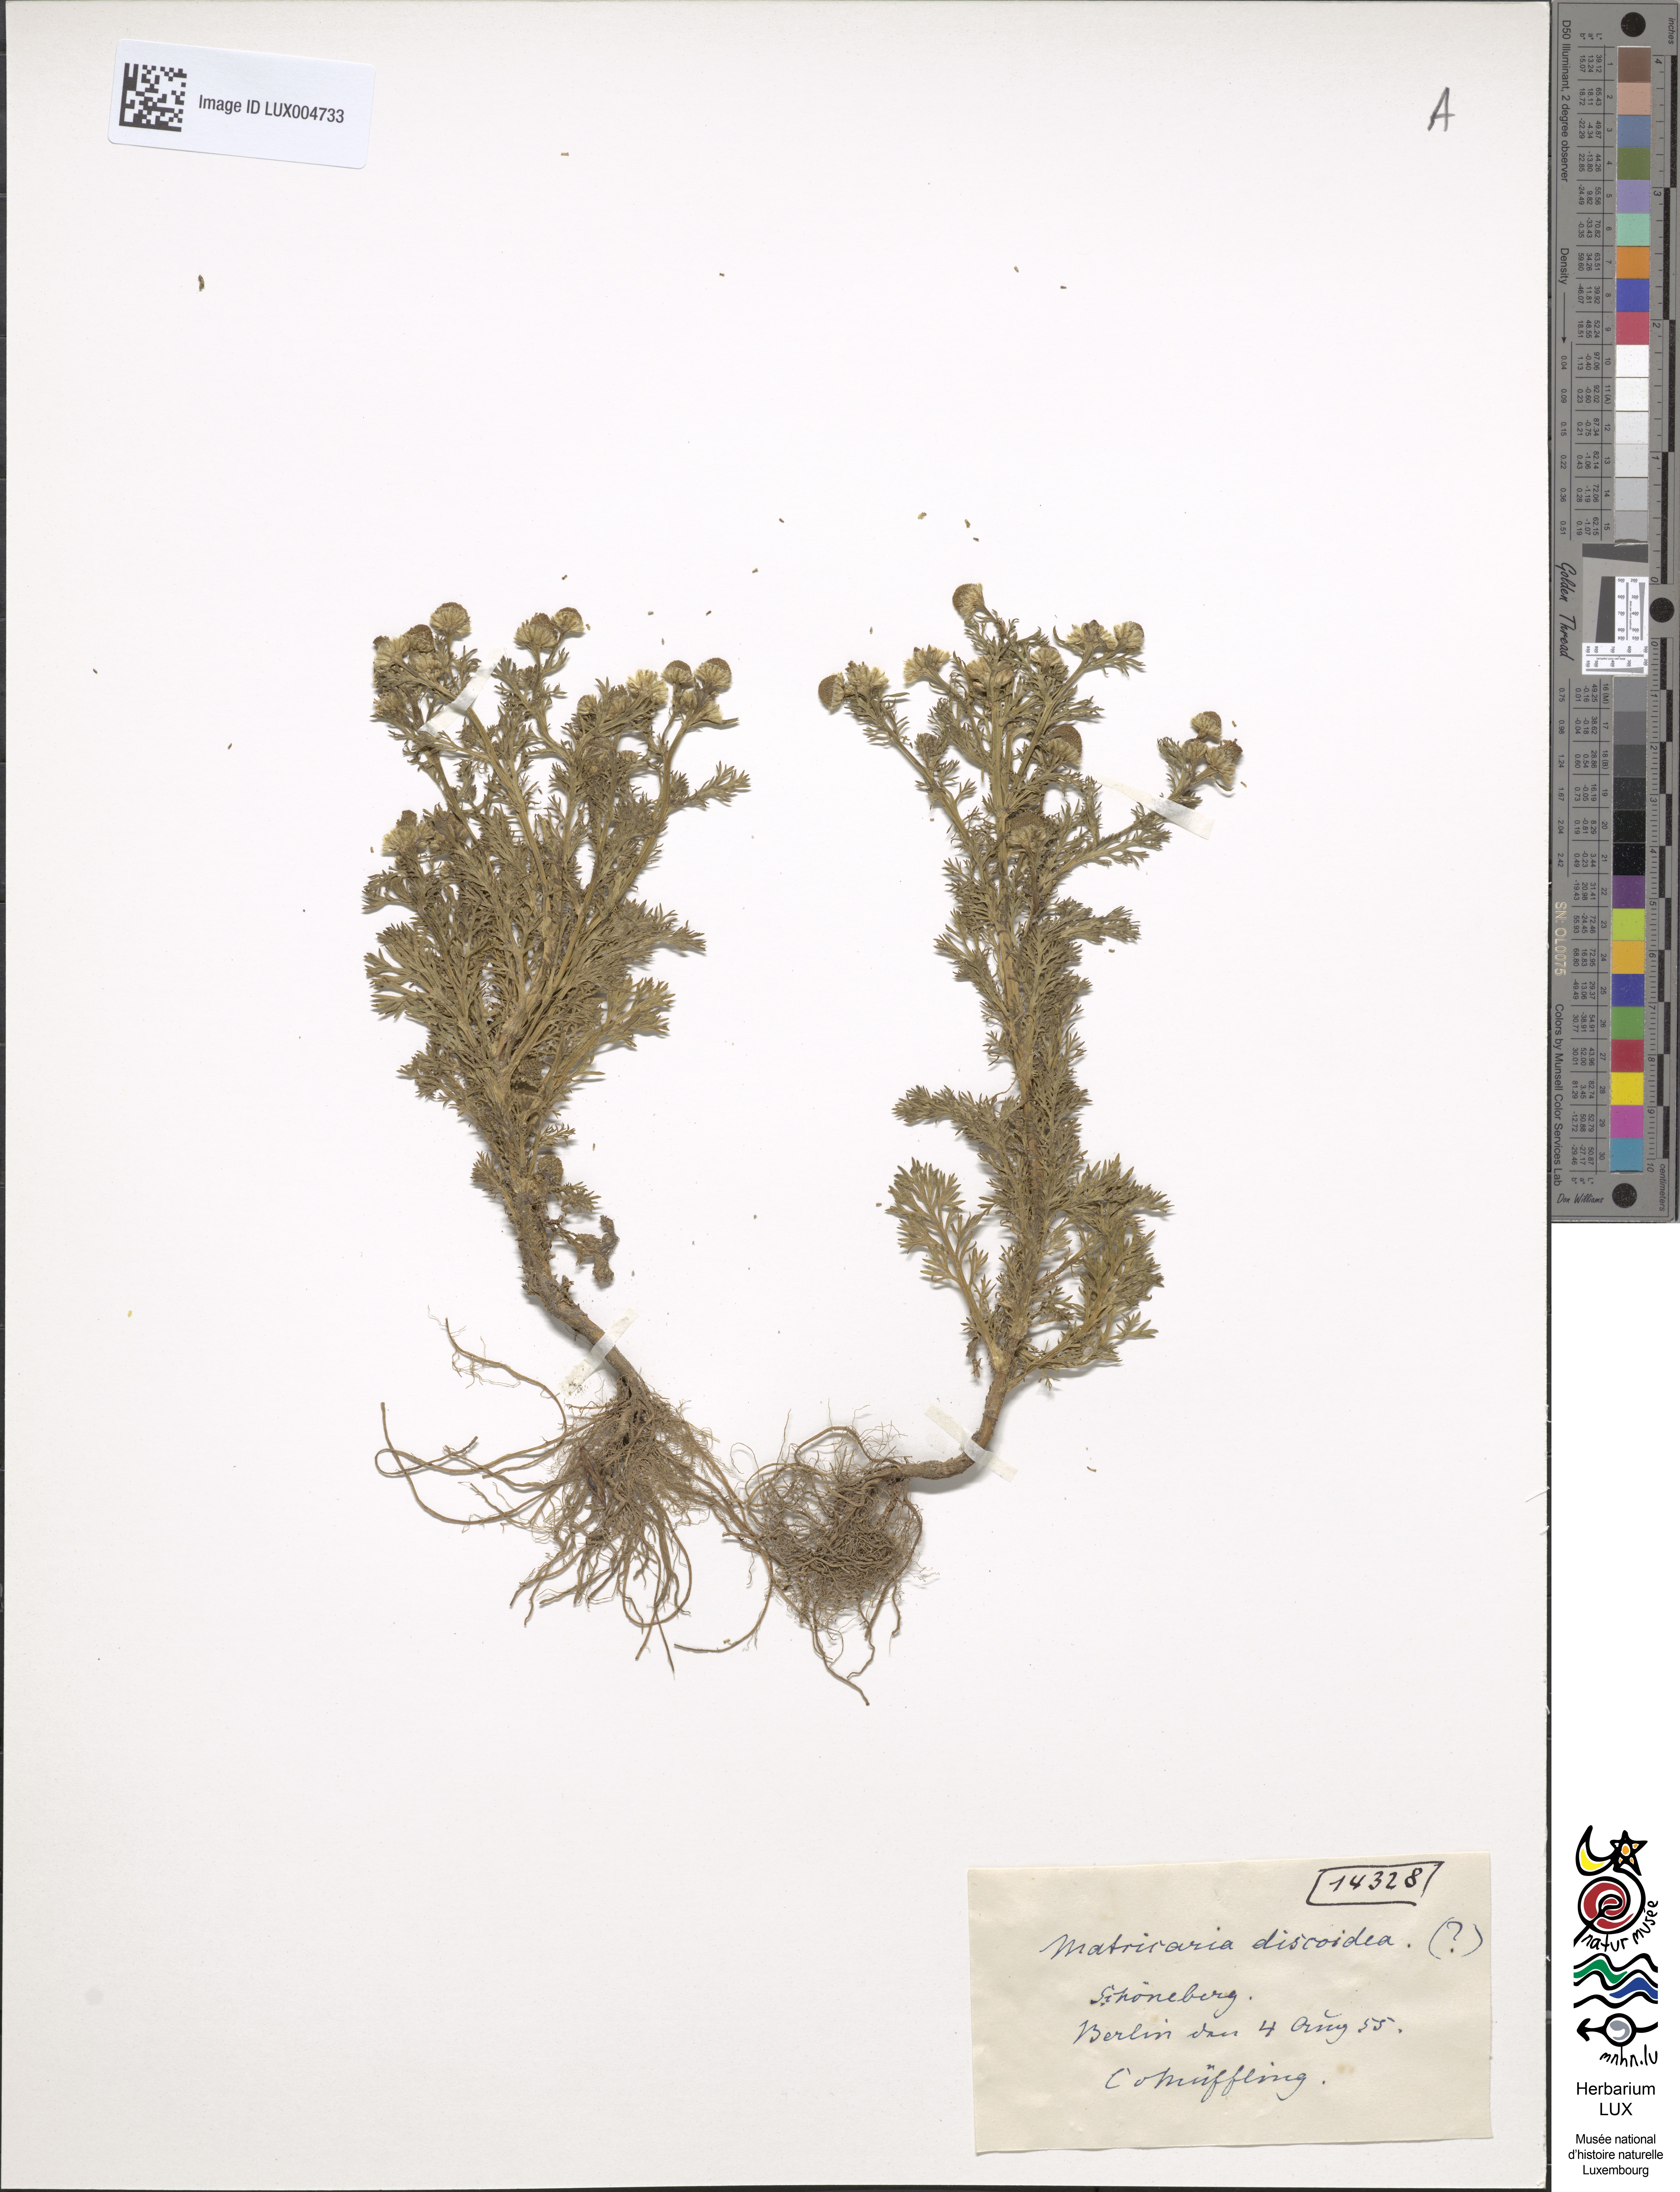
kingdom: Plantae
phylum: Tracheophyta
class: Magnoliopsida
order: Asterales
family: Asteraceae
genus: Matricaria
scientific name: Matricaria discoidea
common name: Disc mayweed
